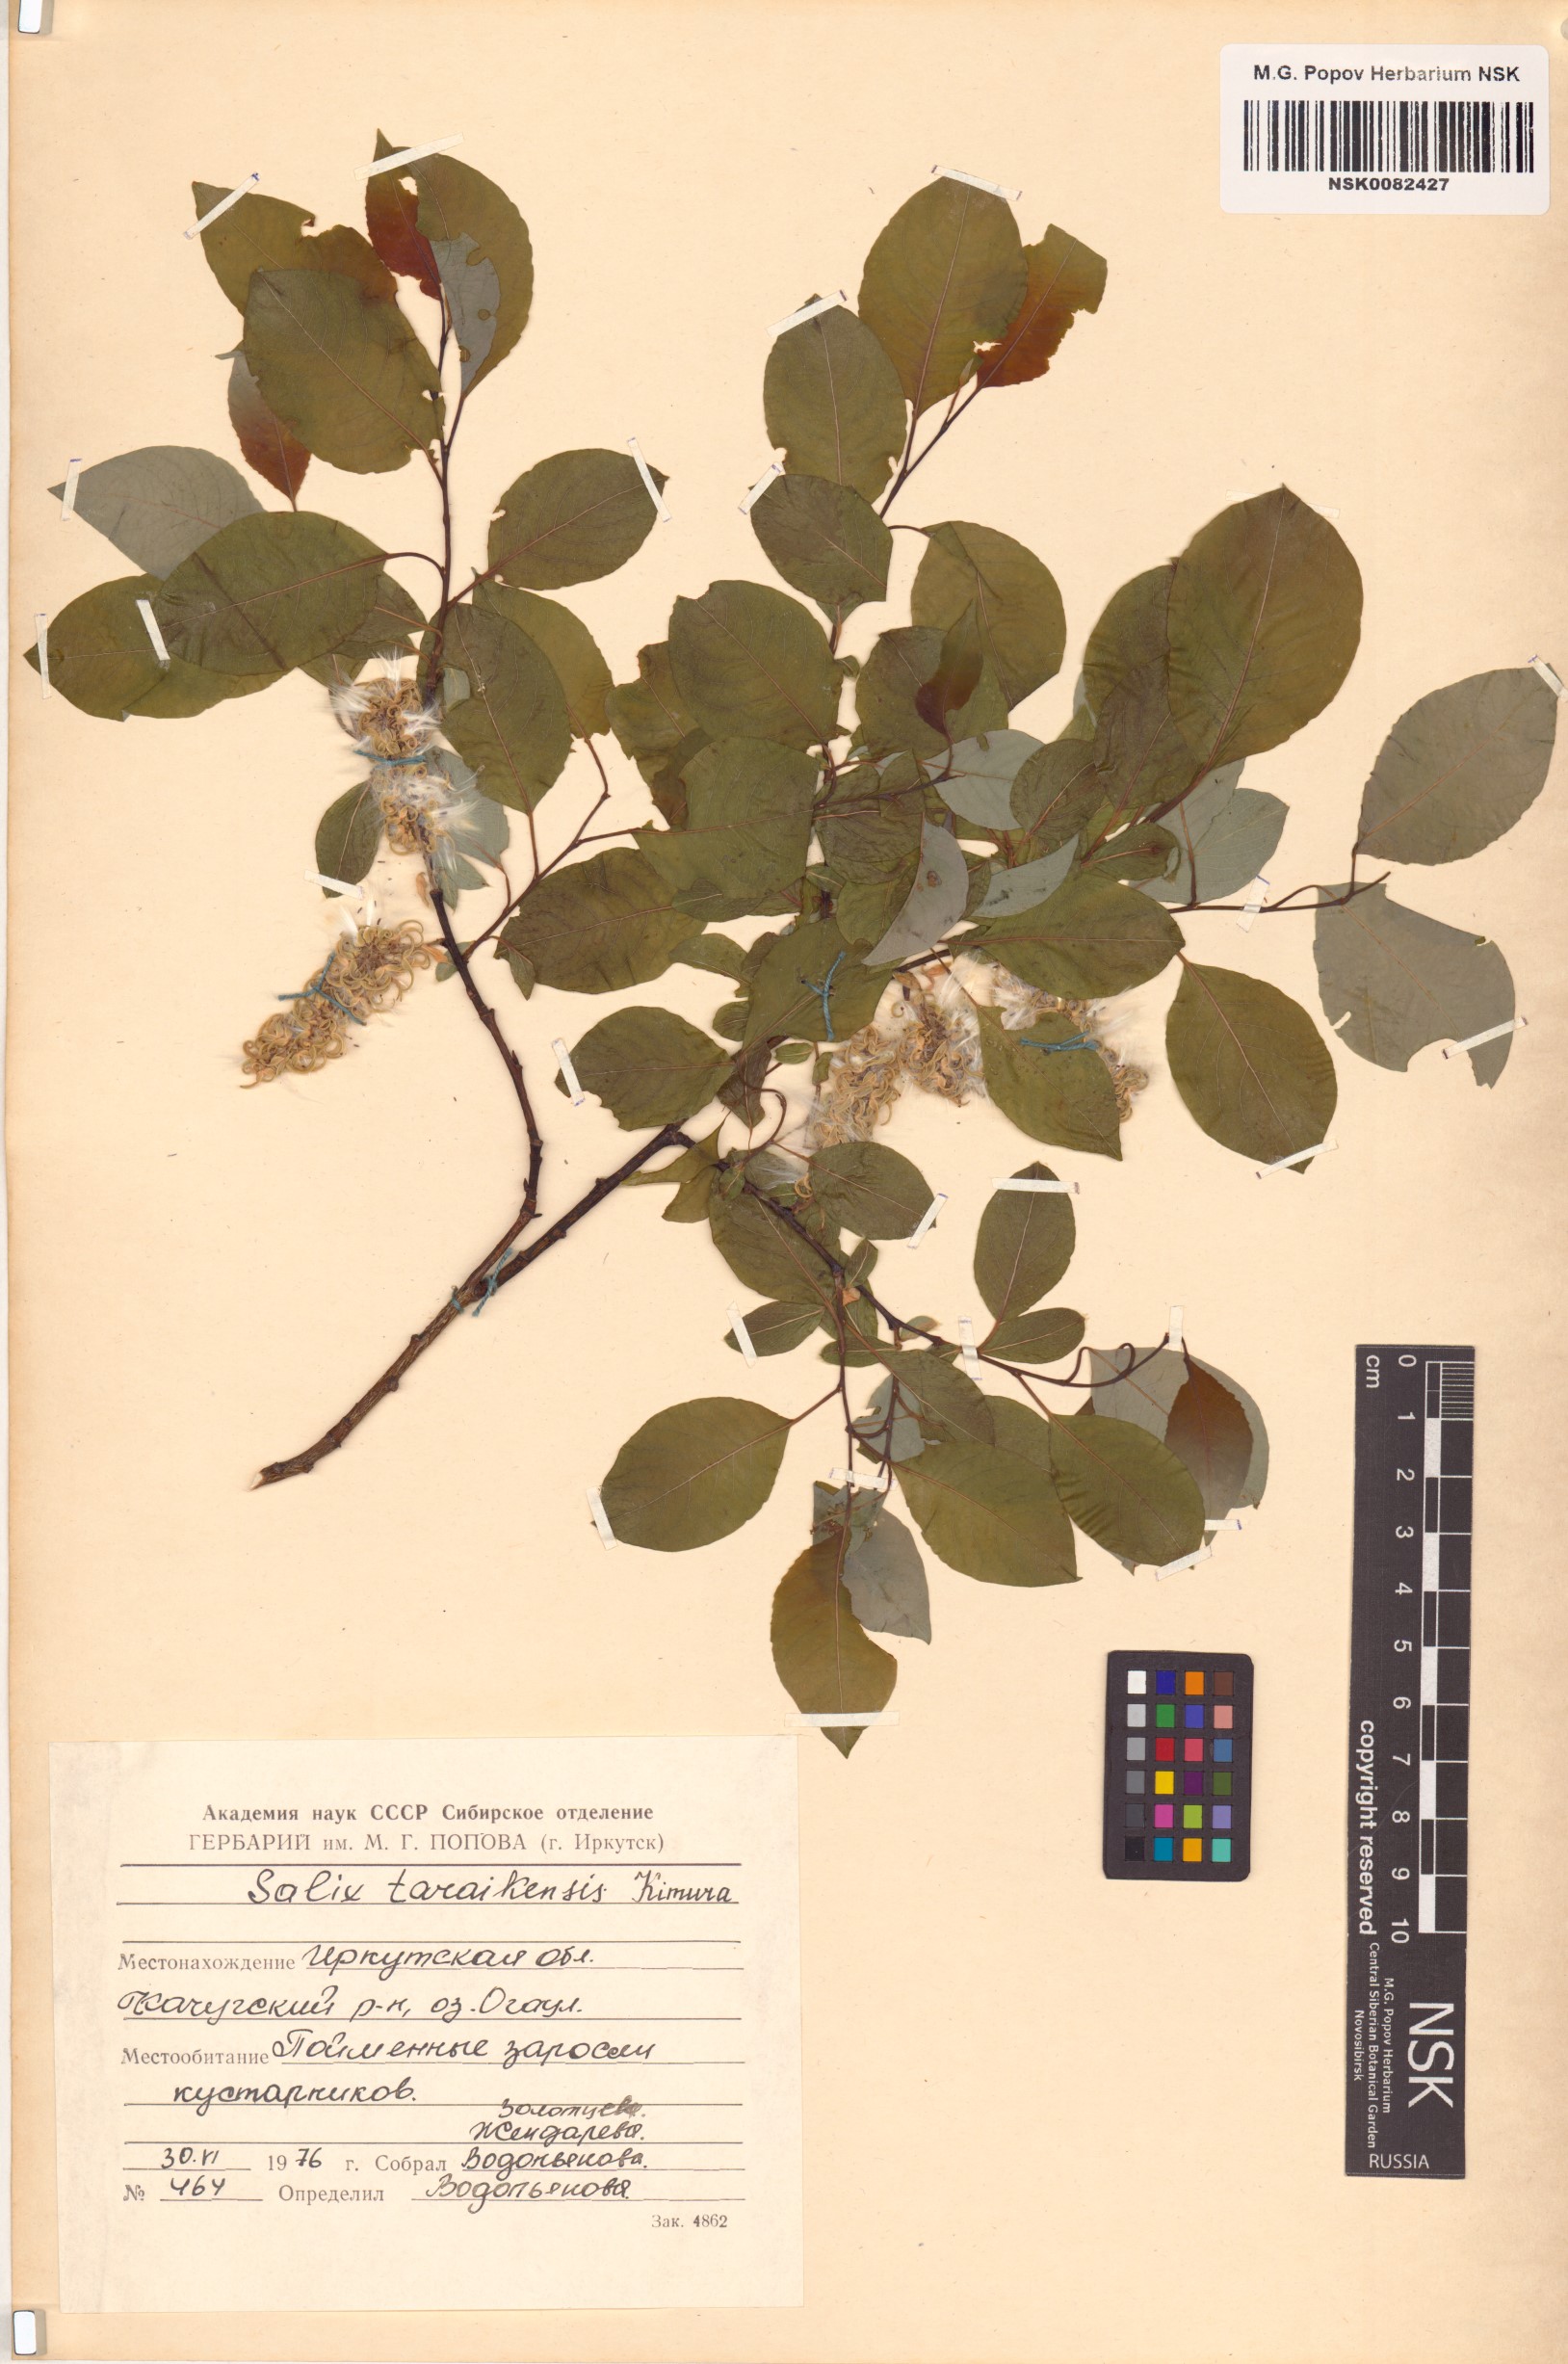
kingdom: Plantae
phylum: Tracheophyta
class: Magnoliopsida
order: Malpighiales
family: Salicaceae
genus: Salix
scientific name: Salix taraikensis
